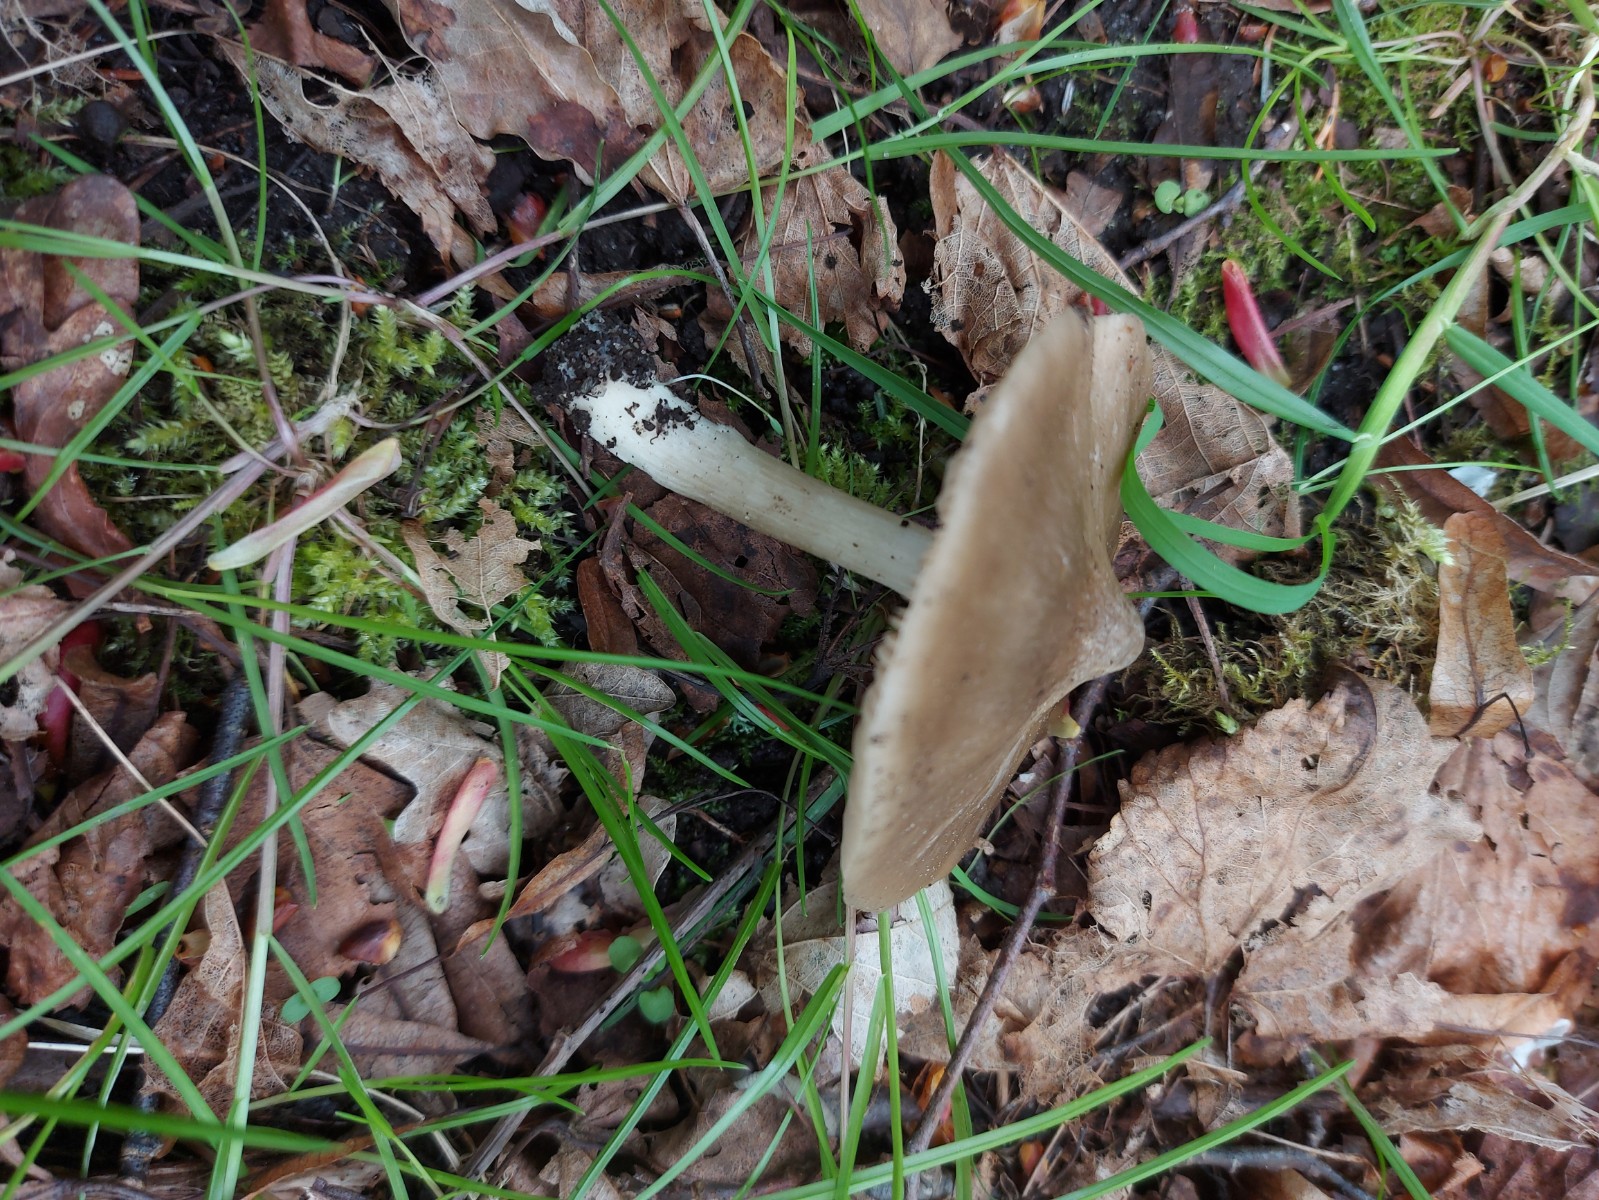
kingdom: Fungi
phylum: Basidiomycota
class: Agaricomycetes
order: Agaricales
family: Entolomataceae
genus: Entoloma
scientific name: Entoloma clypeatum
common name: flammet rødblad
